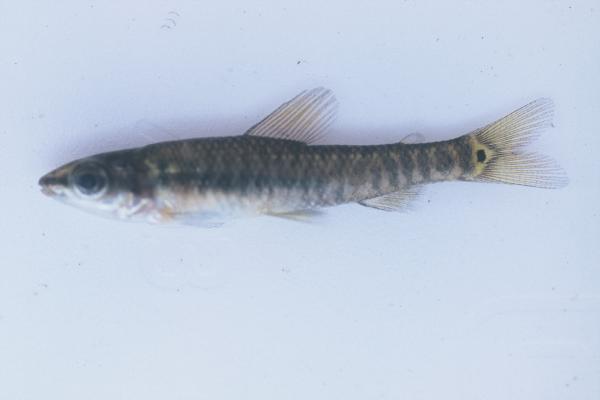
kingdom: Animalia
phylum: Chordata
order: Characiformes
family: Distichodontidae
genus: Nannocharax
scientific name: Nannocharax multifasciatus
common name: Multibar citharine
